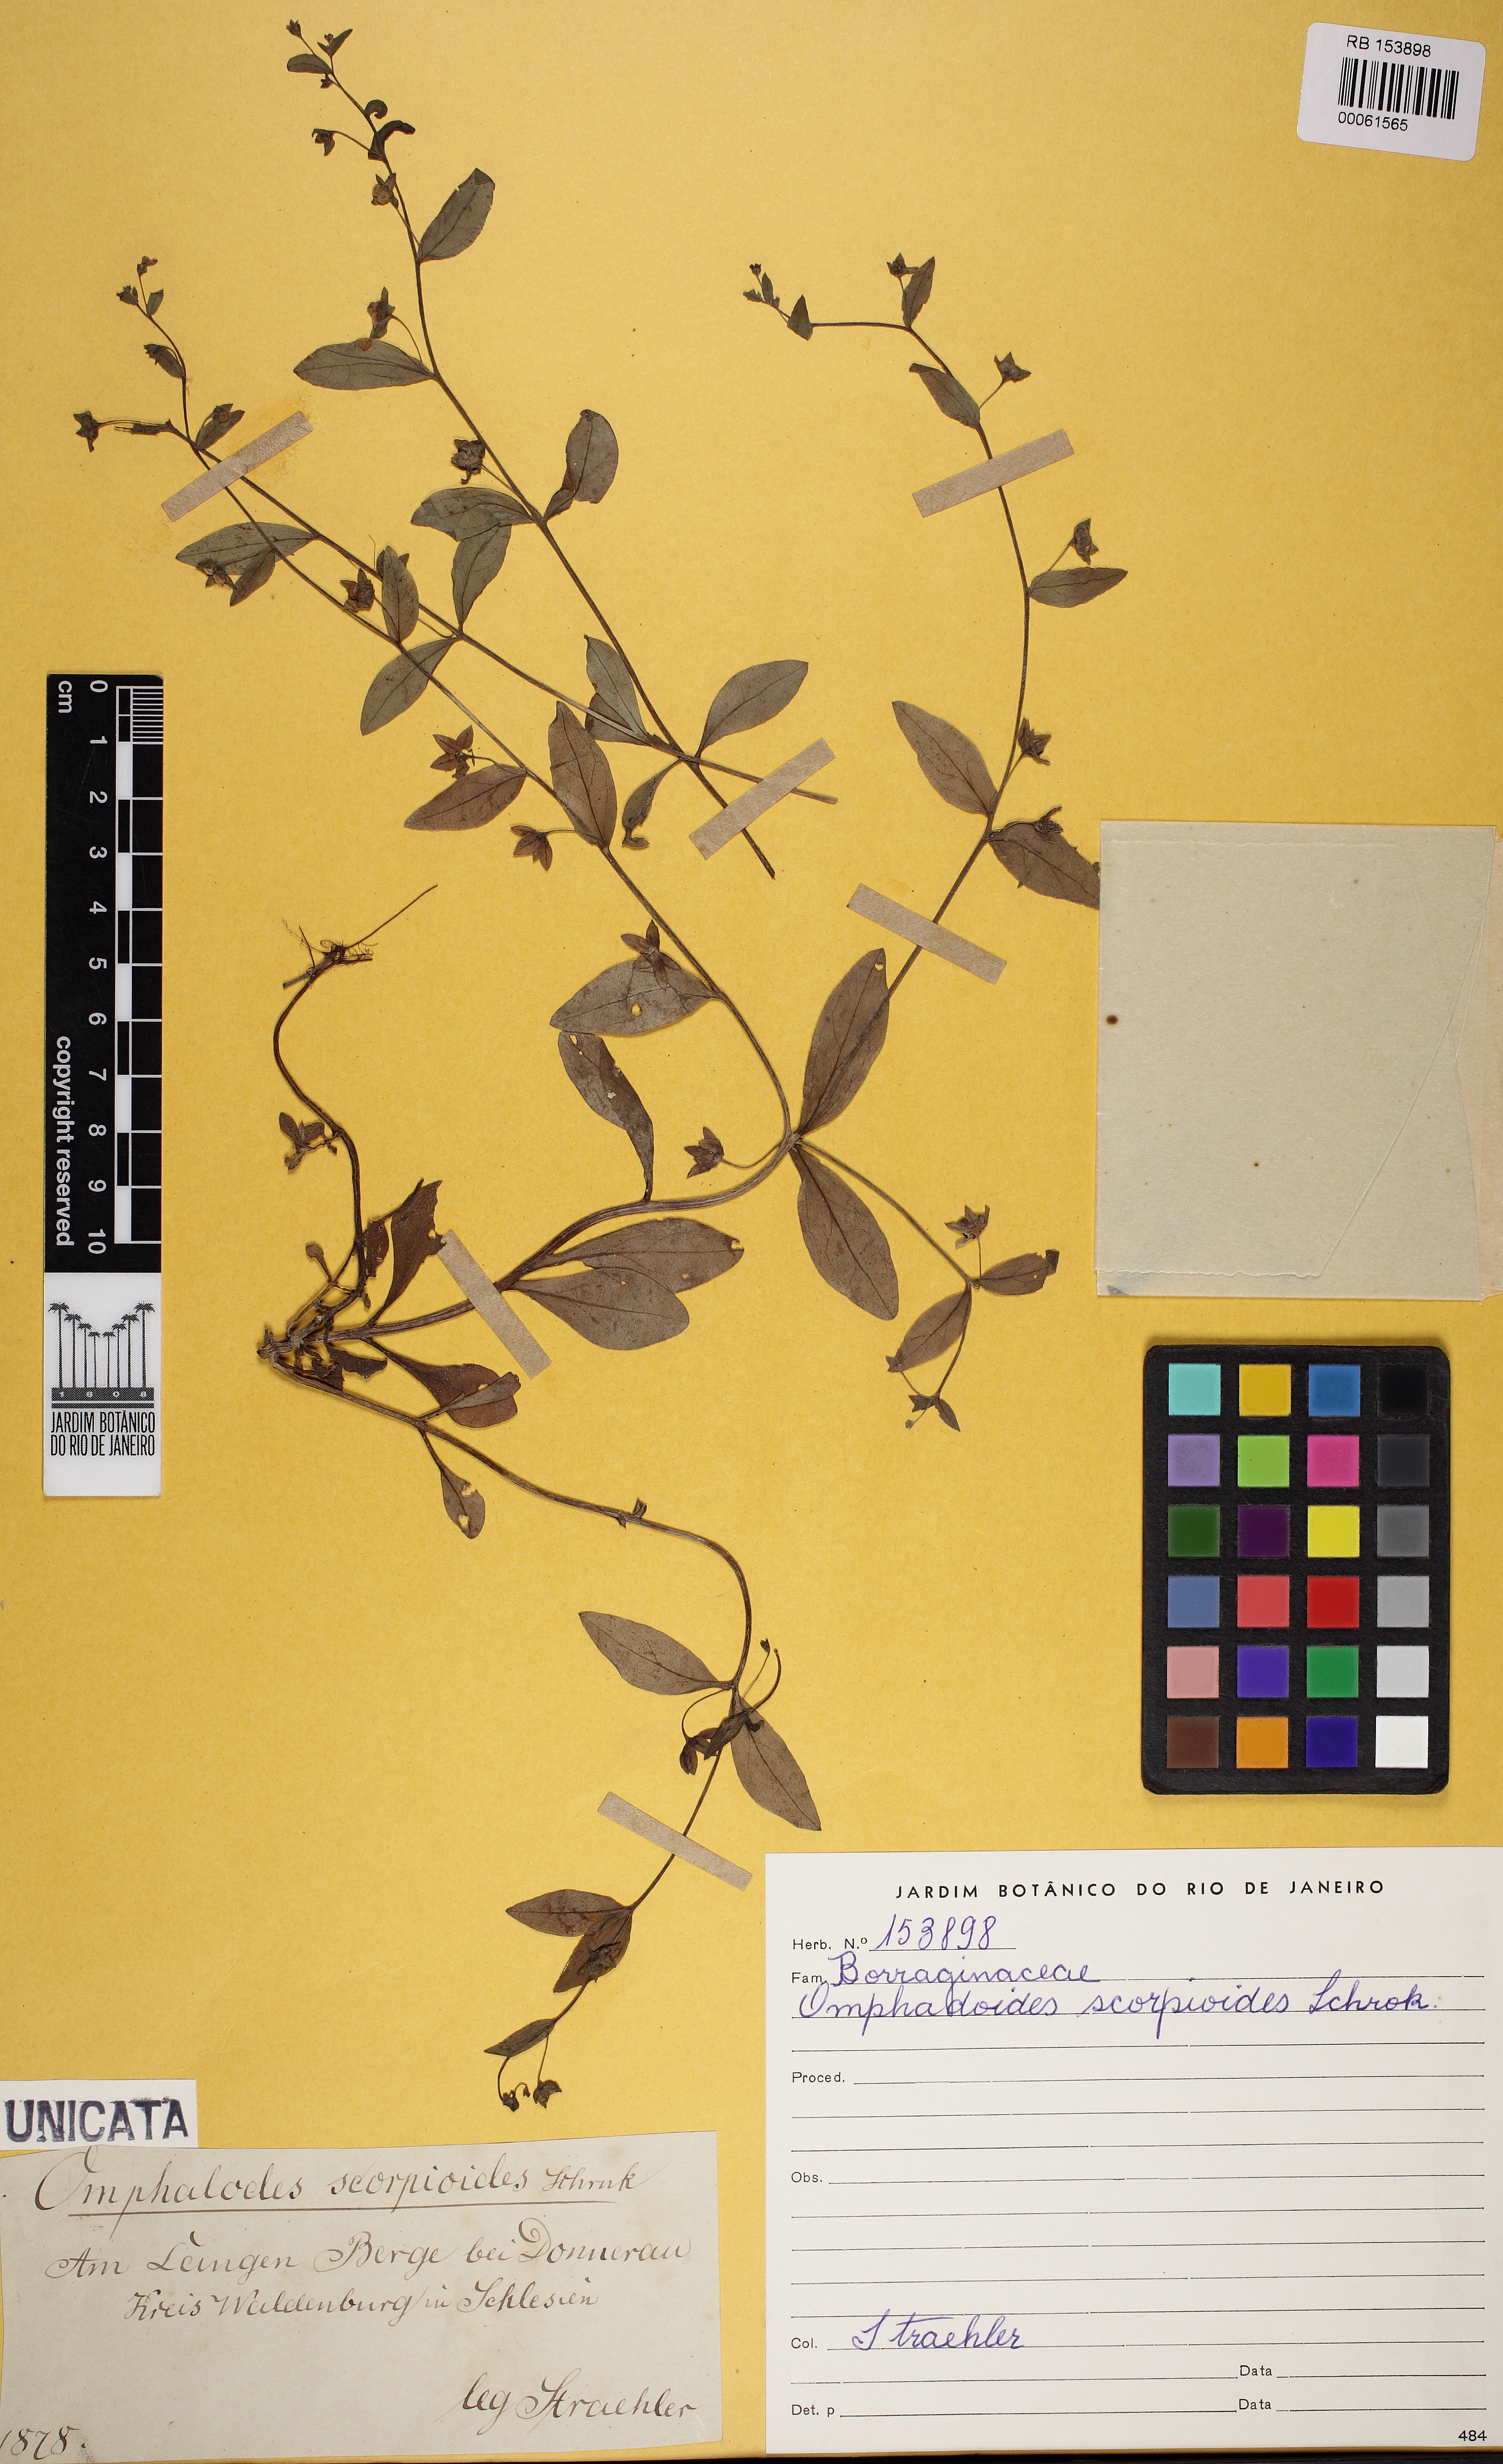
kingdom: Plantae
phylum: Tracheophyta
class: Magnoliopsida
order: Boraginales
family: Boraginaceae
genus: Memoremea
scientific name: Memoremea scorpioides
